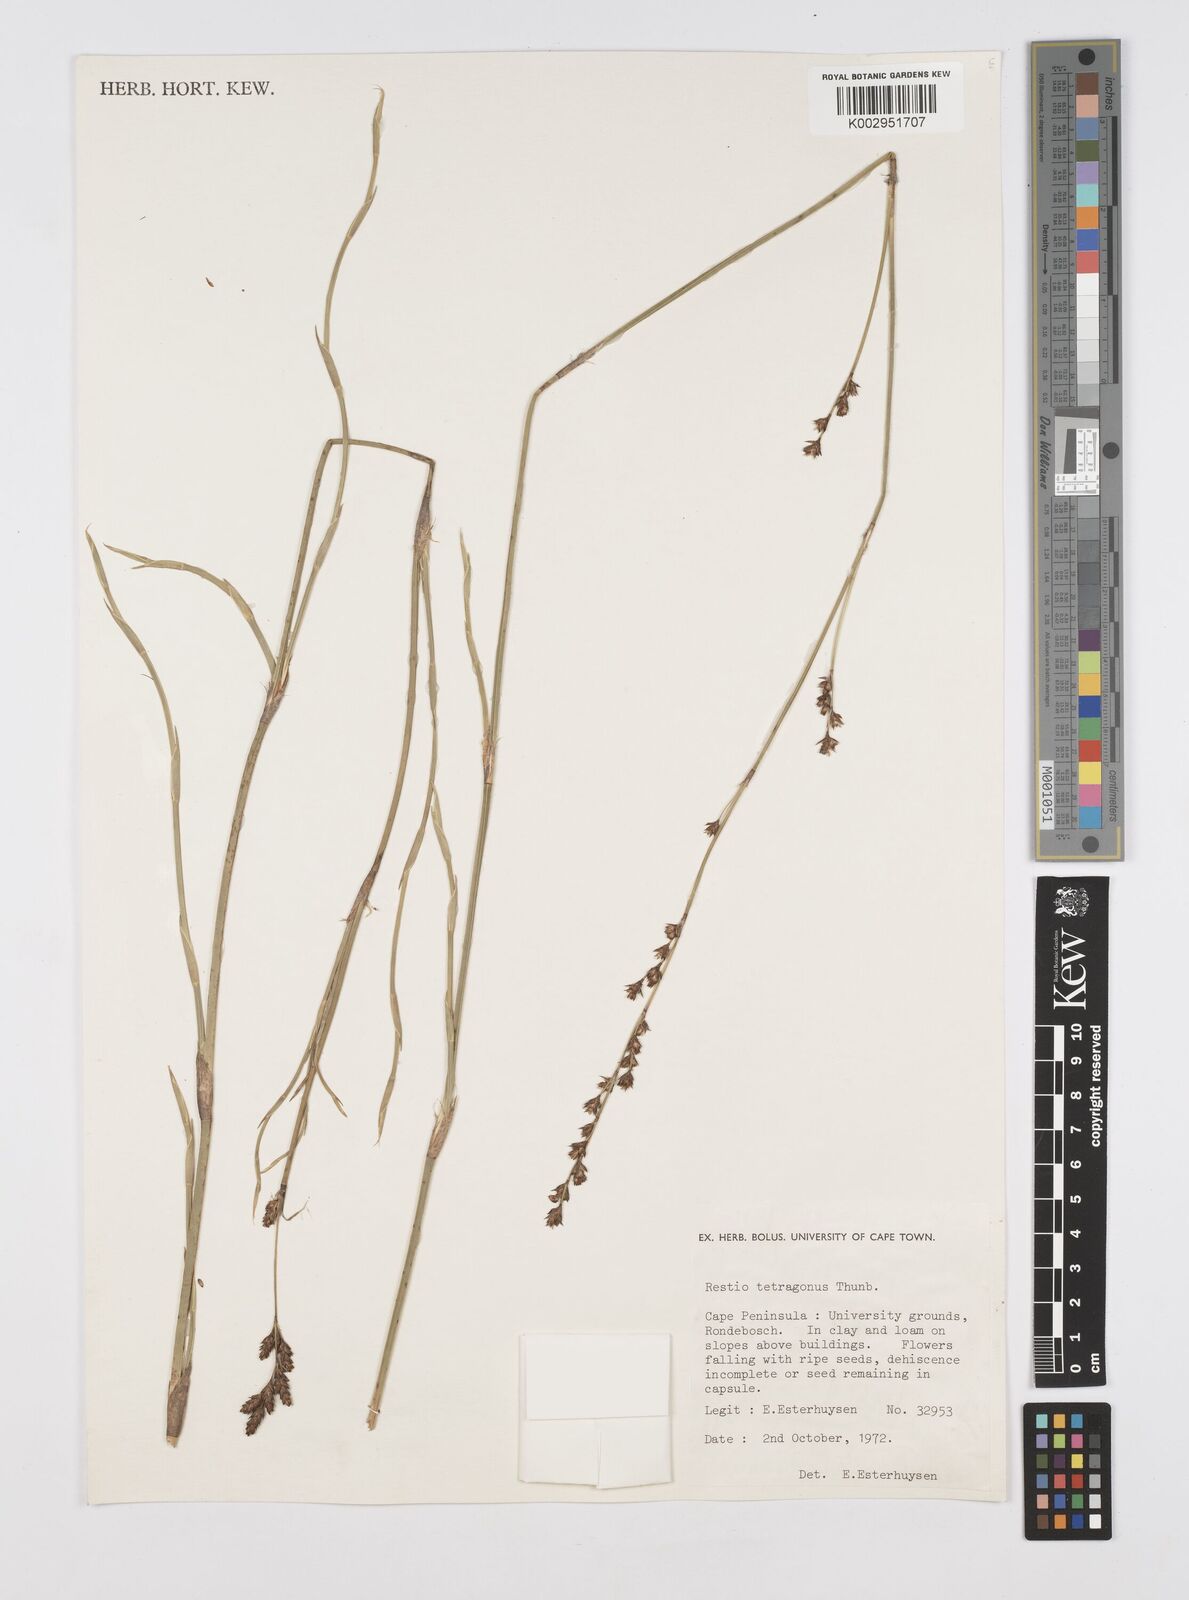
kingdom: Plantae
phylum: Tracheophyta
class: Liliopsida
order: Poales
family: Restionaceae
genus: Restio
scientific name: Restio tetragonus
